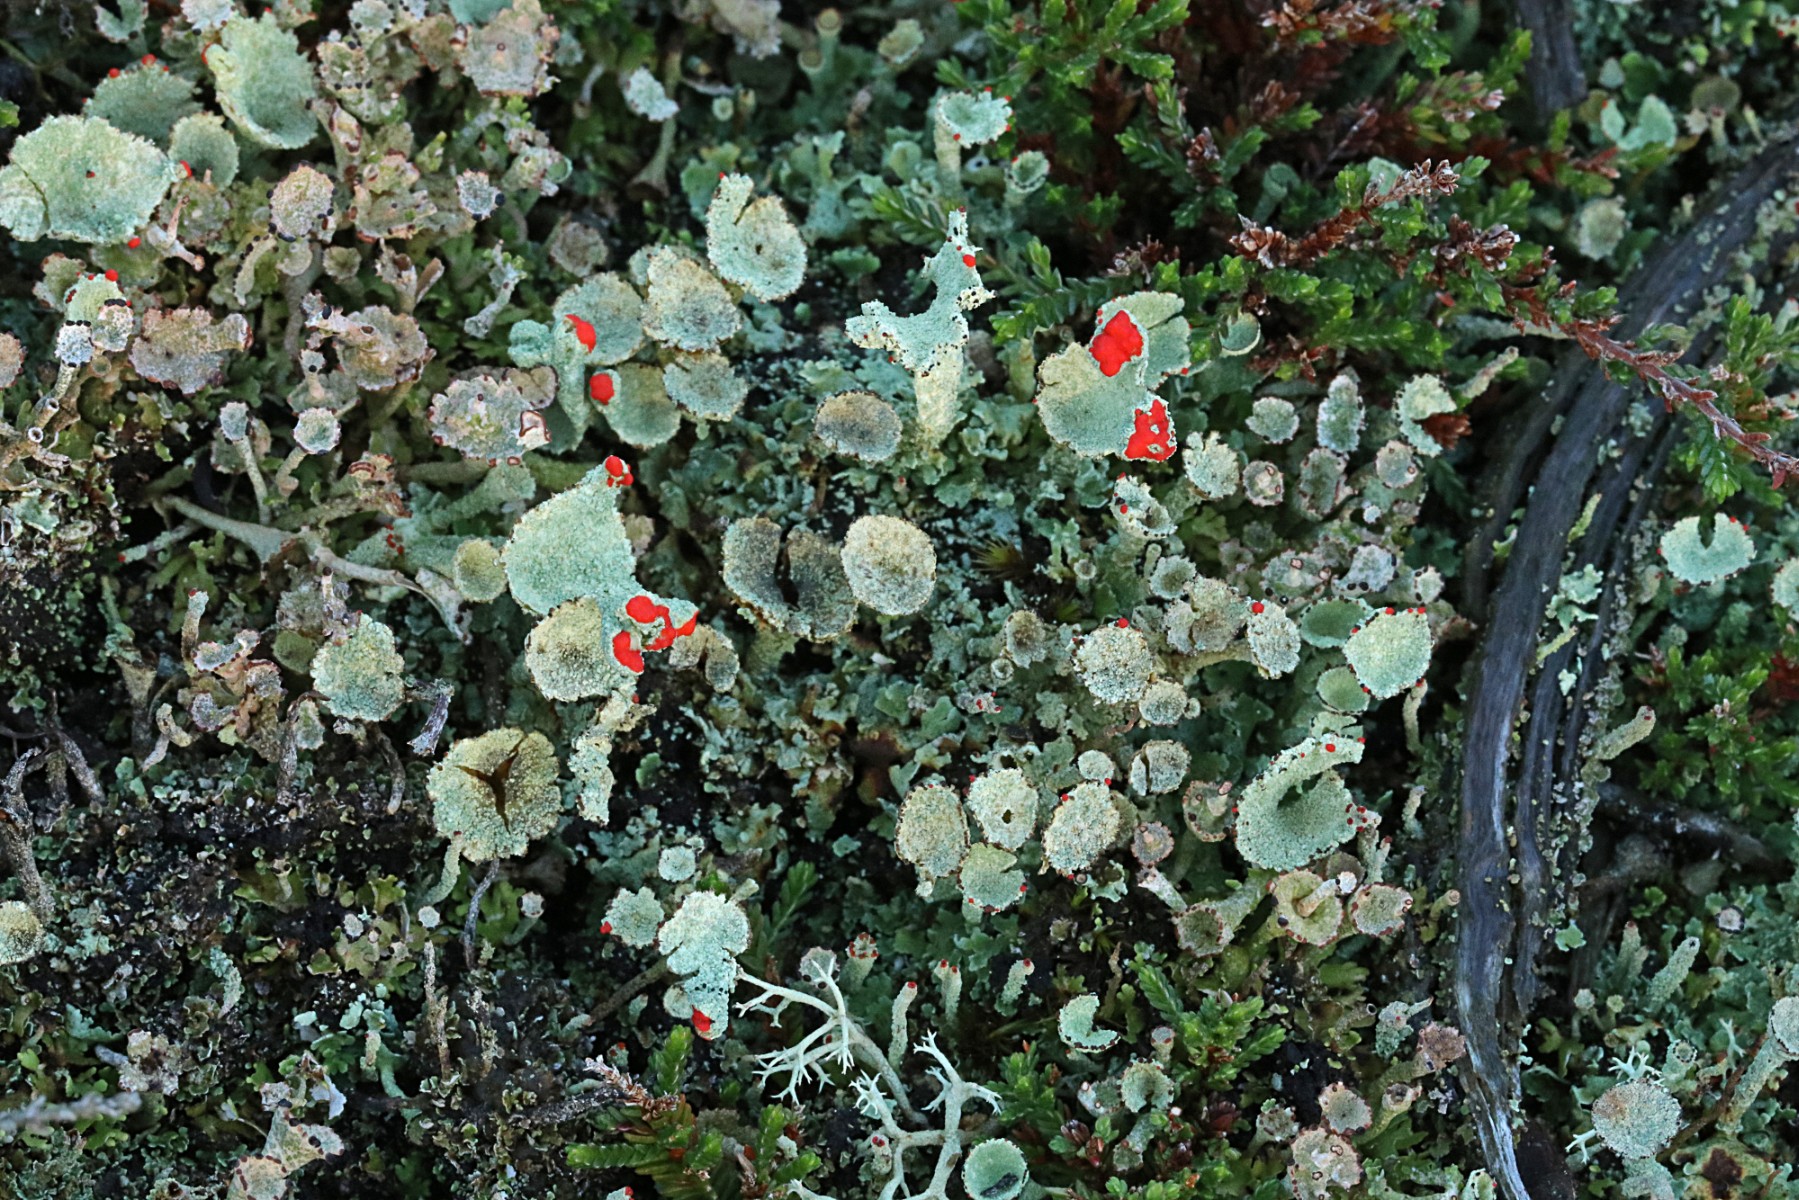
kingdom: Fungi
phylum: Ascomycota
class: Lecanoromycetes
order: Lecanorales
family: Cladoniaceae
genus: Cladonia
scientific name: Cladonia diversa
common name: rød bægerlav
